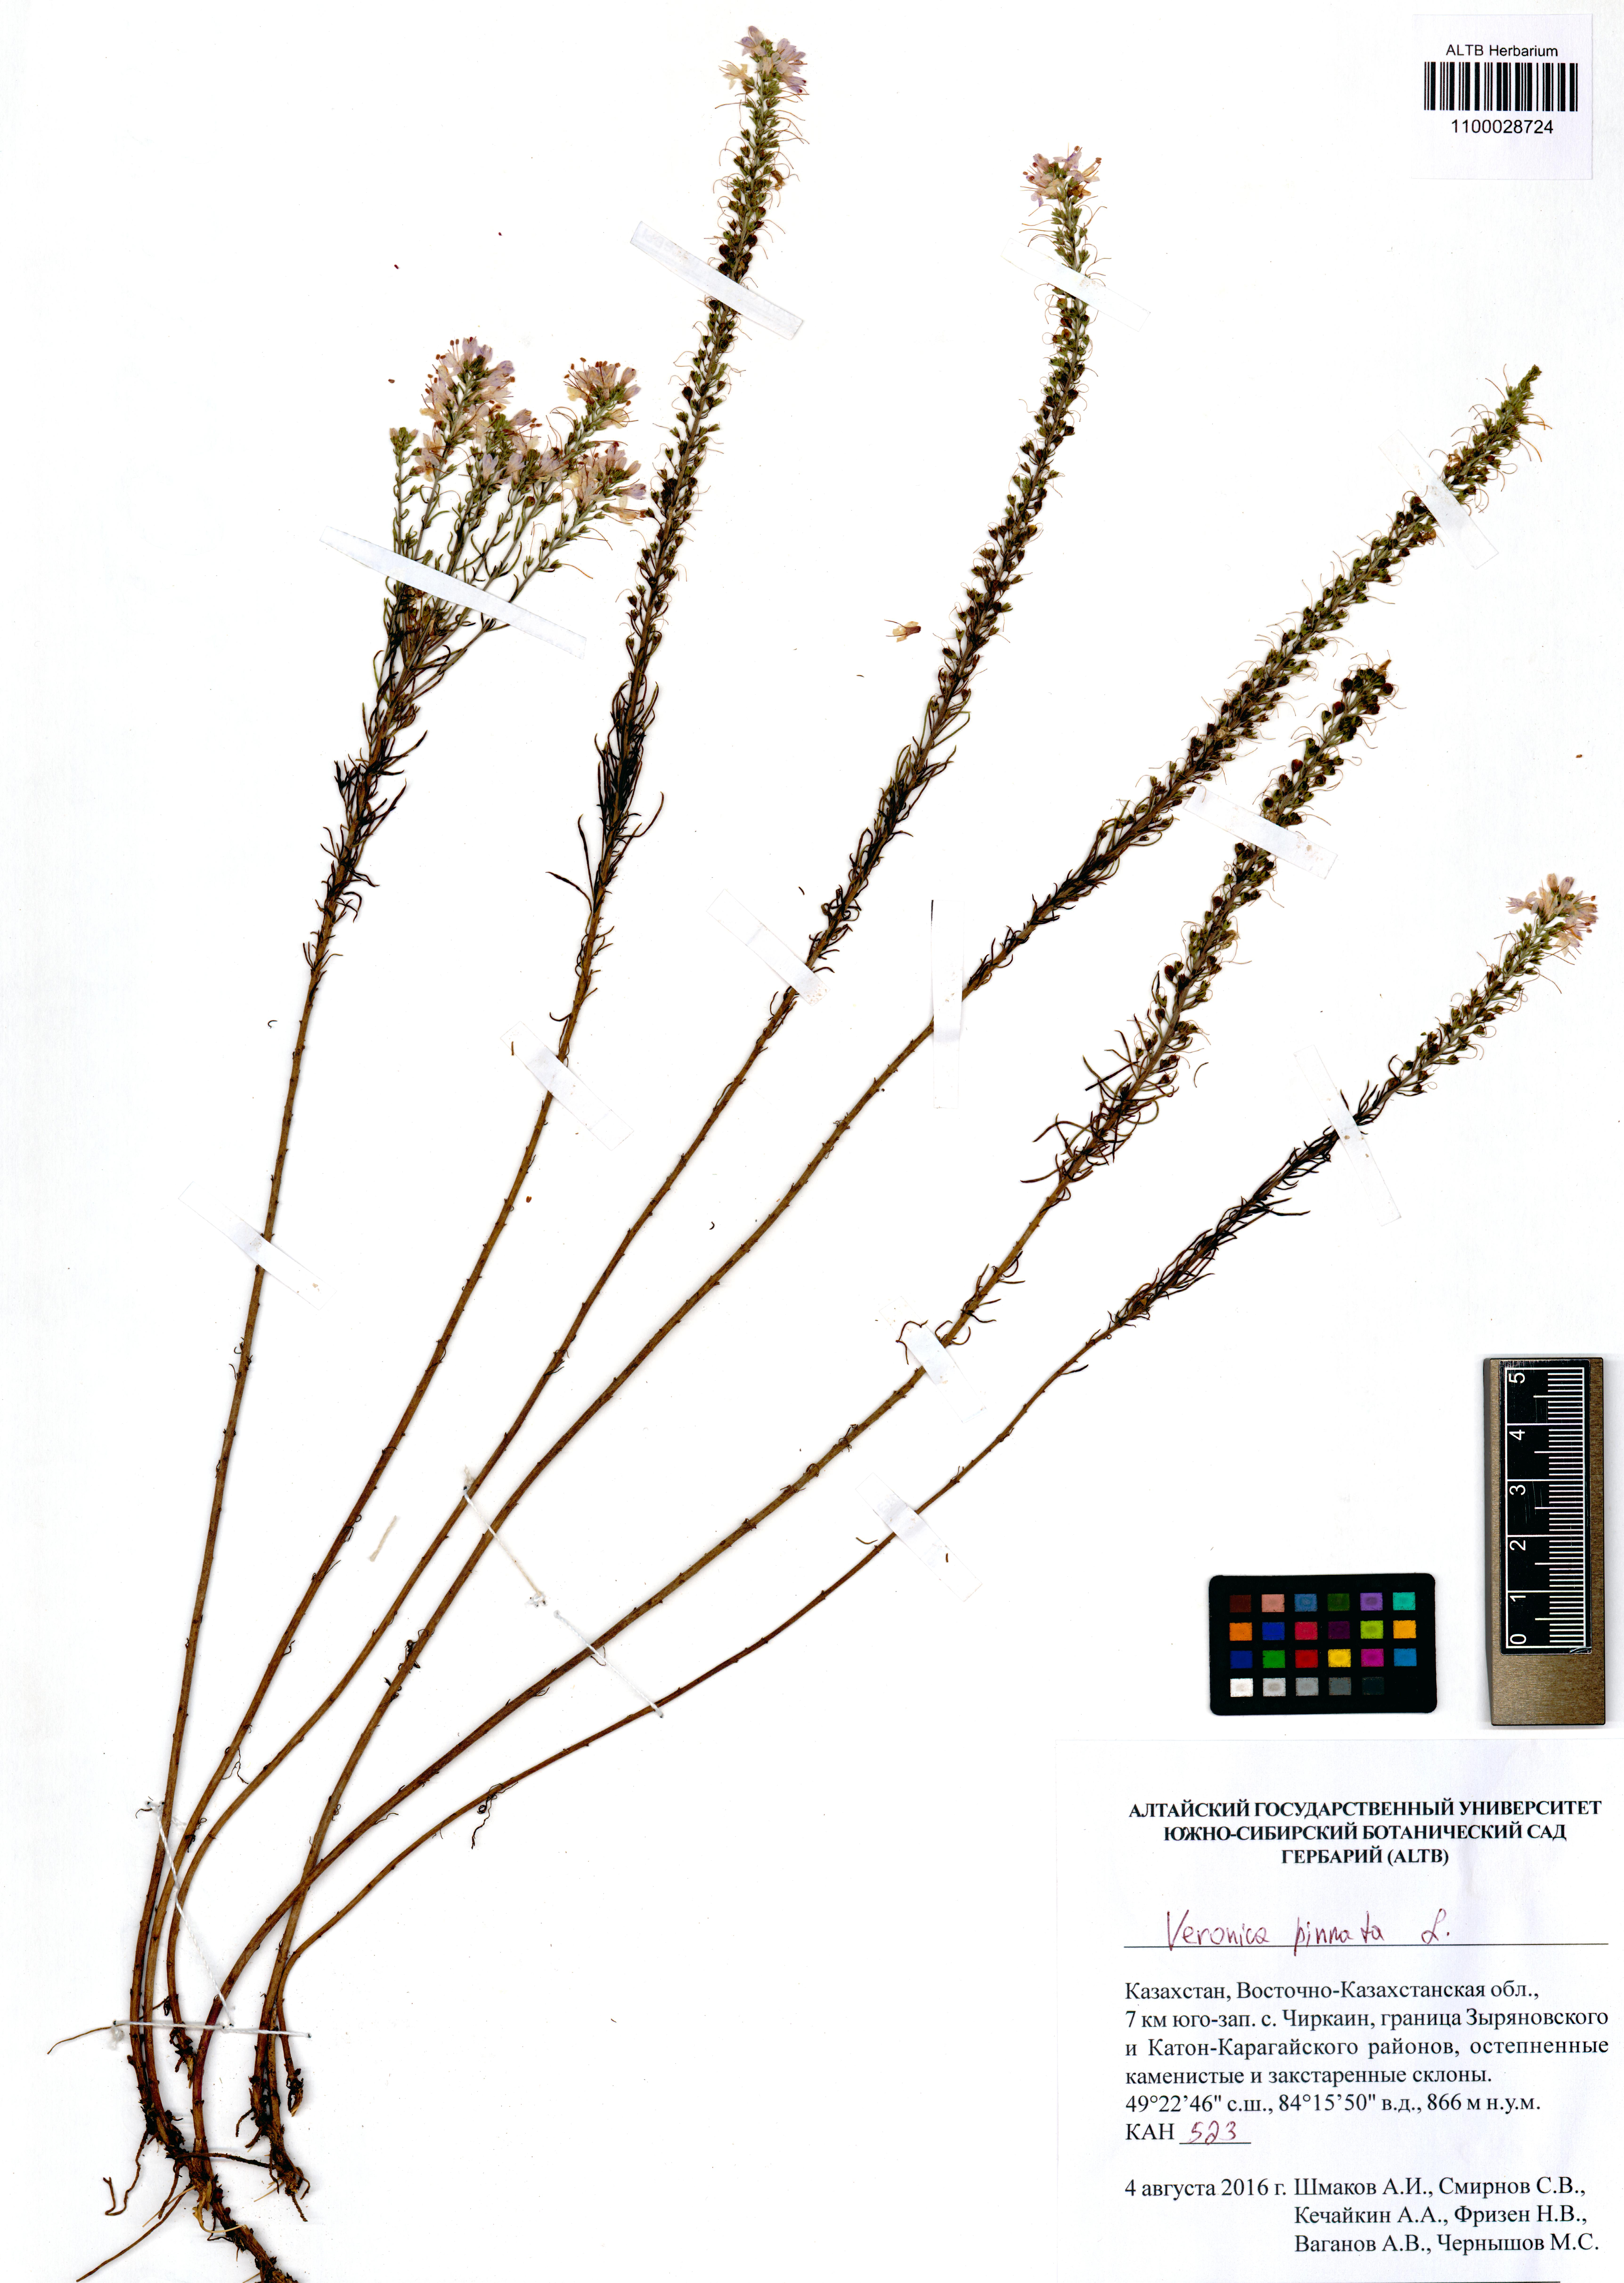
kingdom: Plantae
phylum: Tracheophyta
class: Magnoliopsida
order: Lamiales
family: Plantaginaceae
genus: Veronica
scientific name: Veronica pinnata
